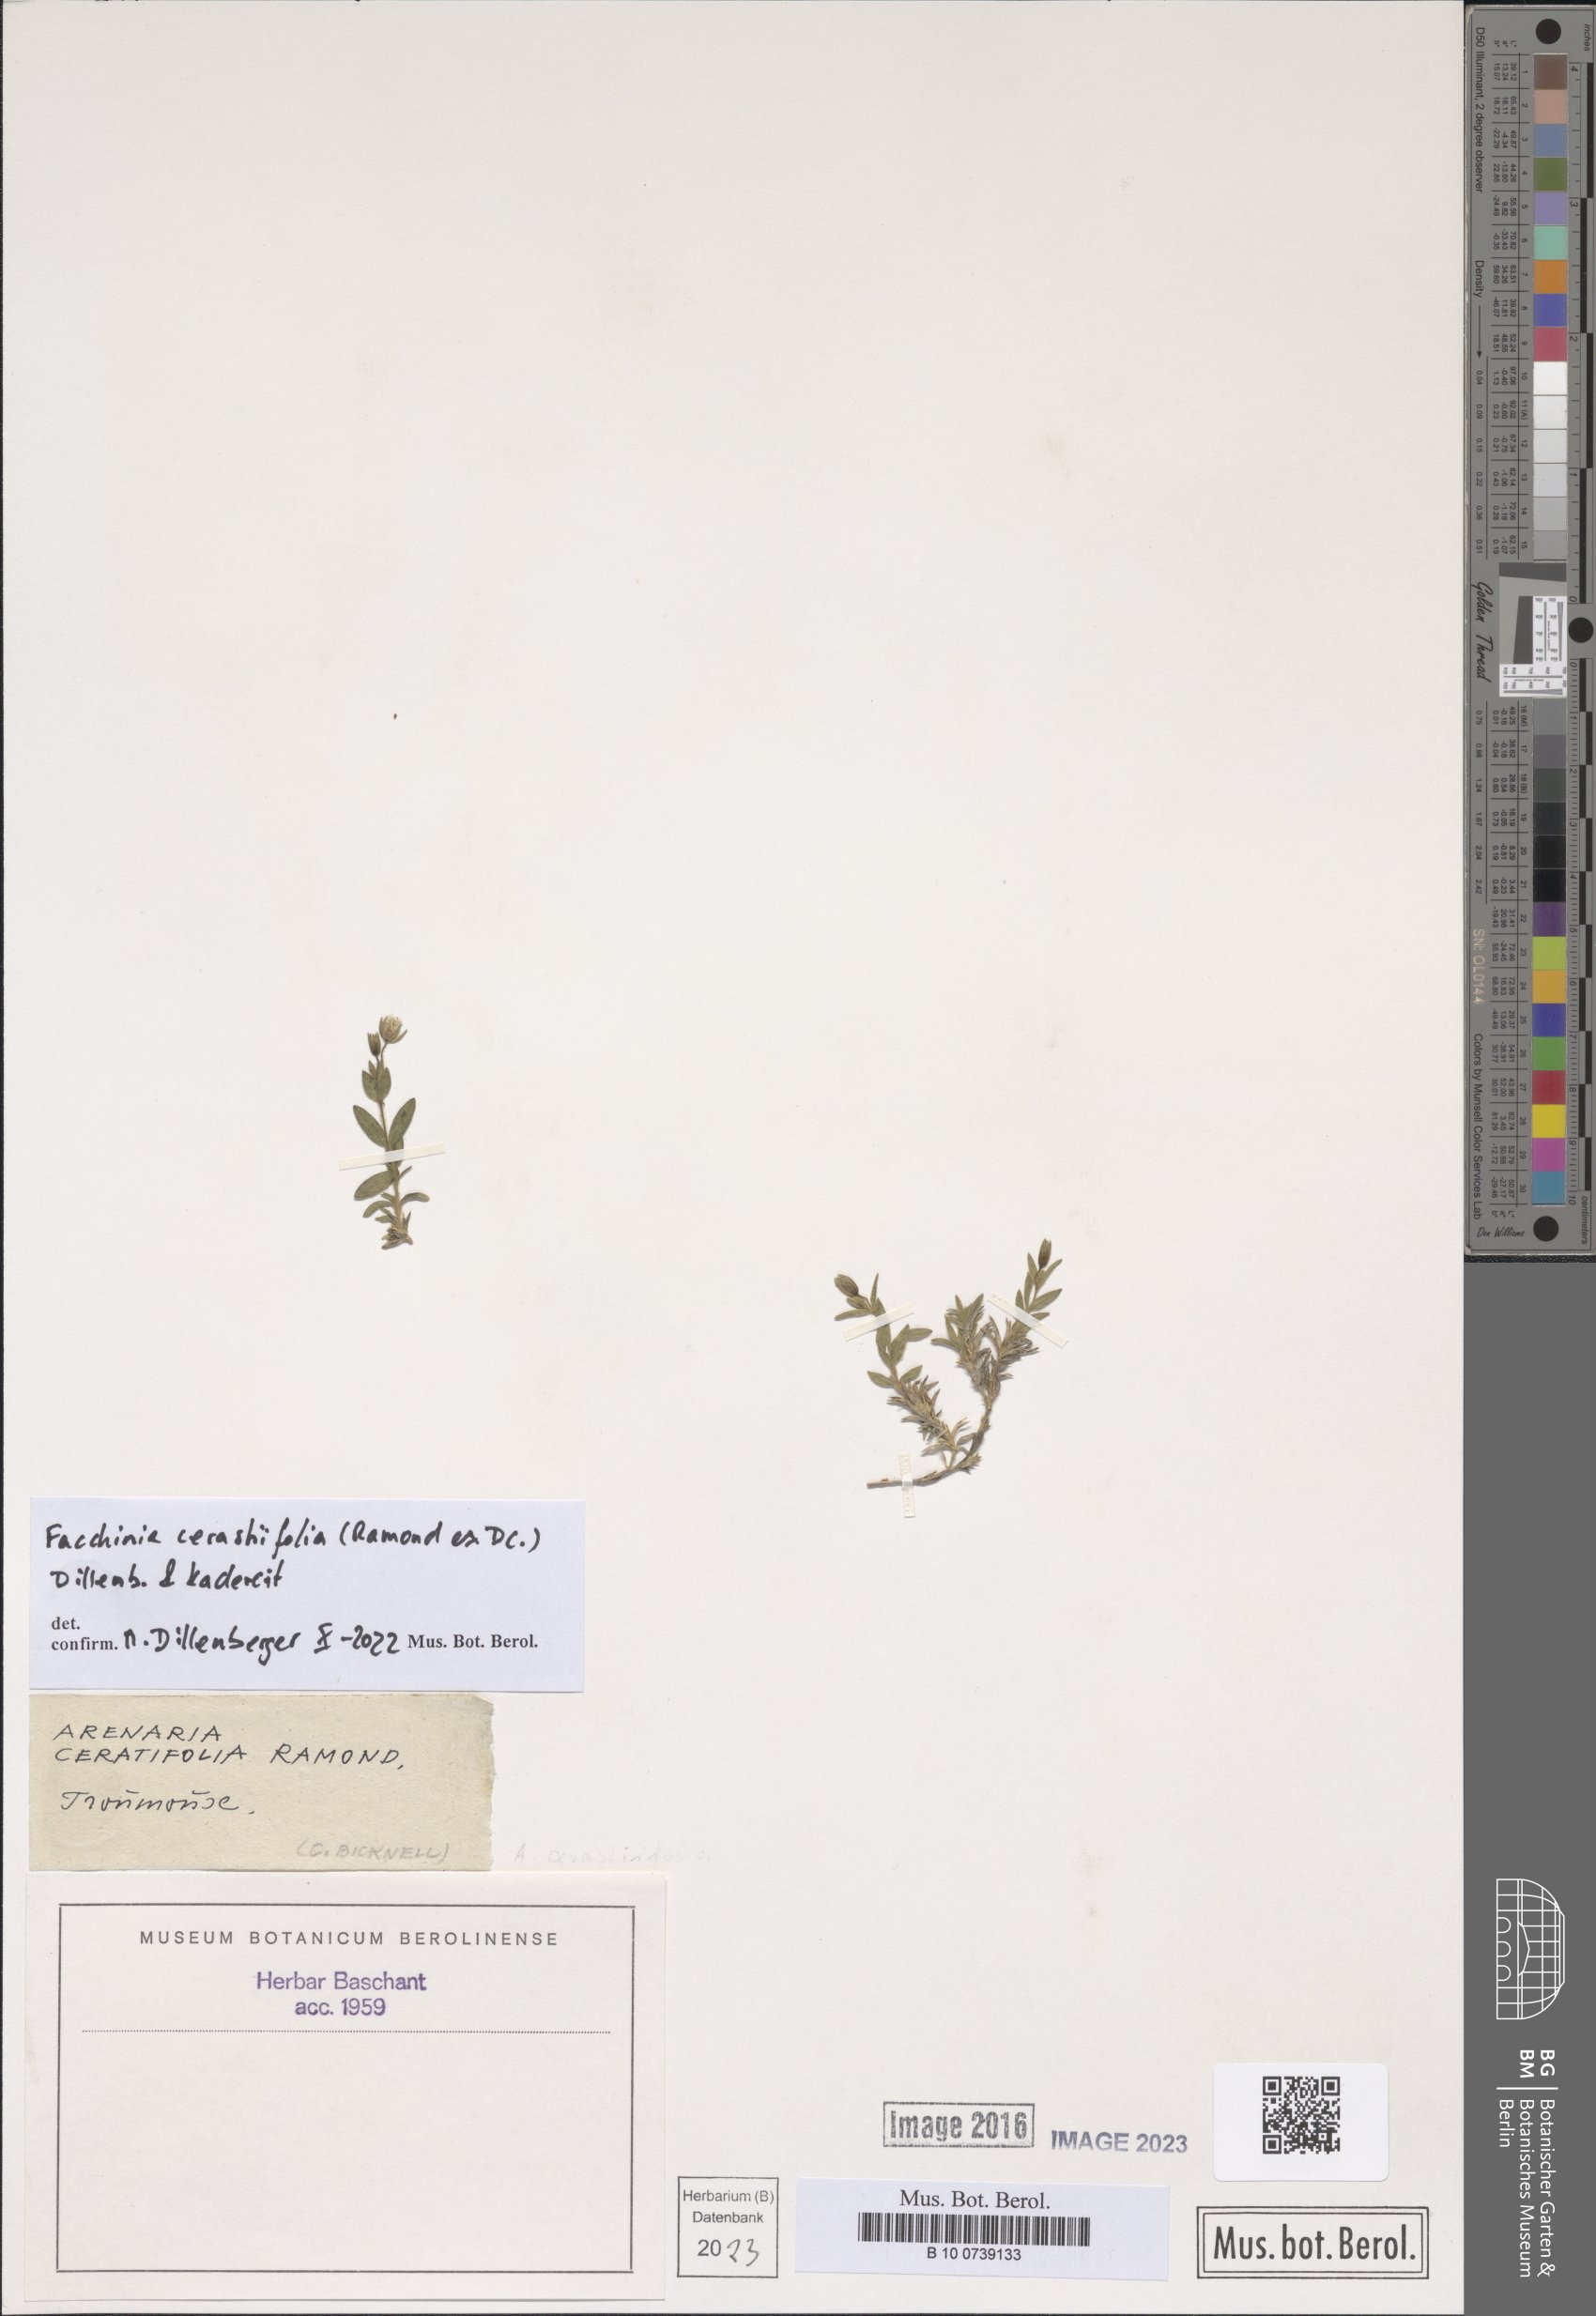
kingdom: Plantae
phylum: Tracheophyta
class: Magnoliopsida
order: Caryophyllales
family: Caryophyllaceae
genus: Facchinia
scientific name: Facchinia cerastiifolia
